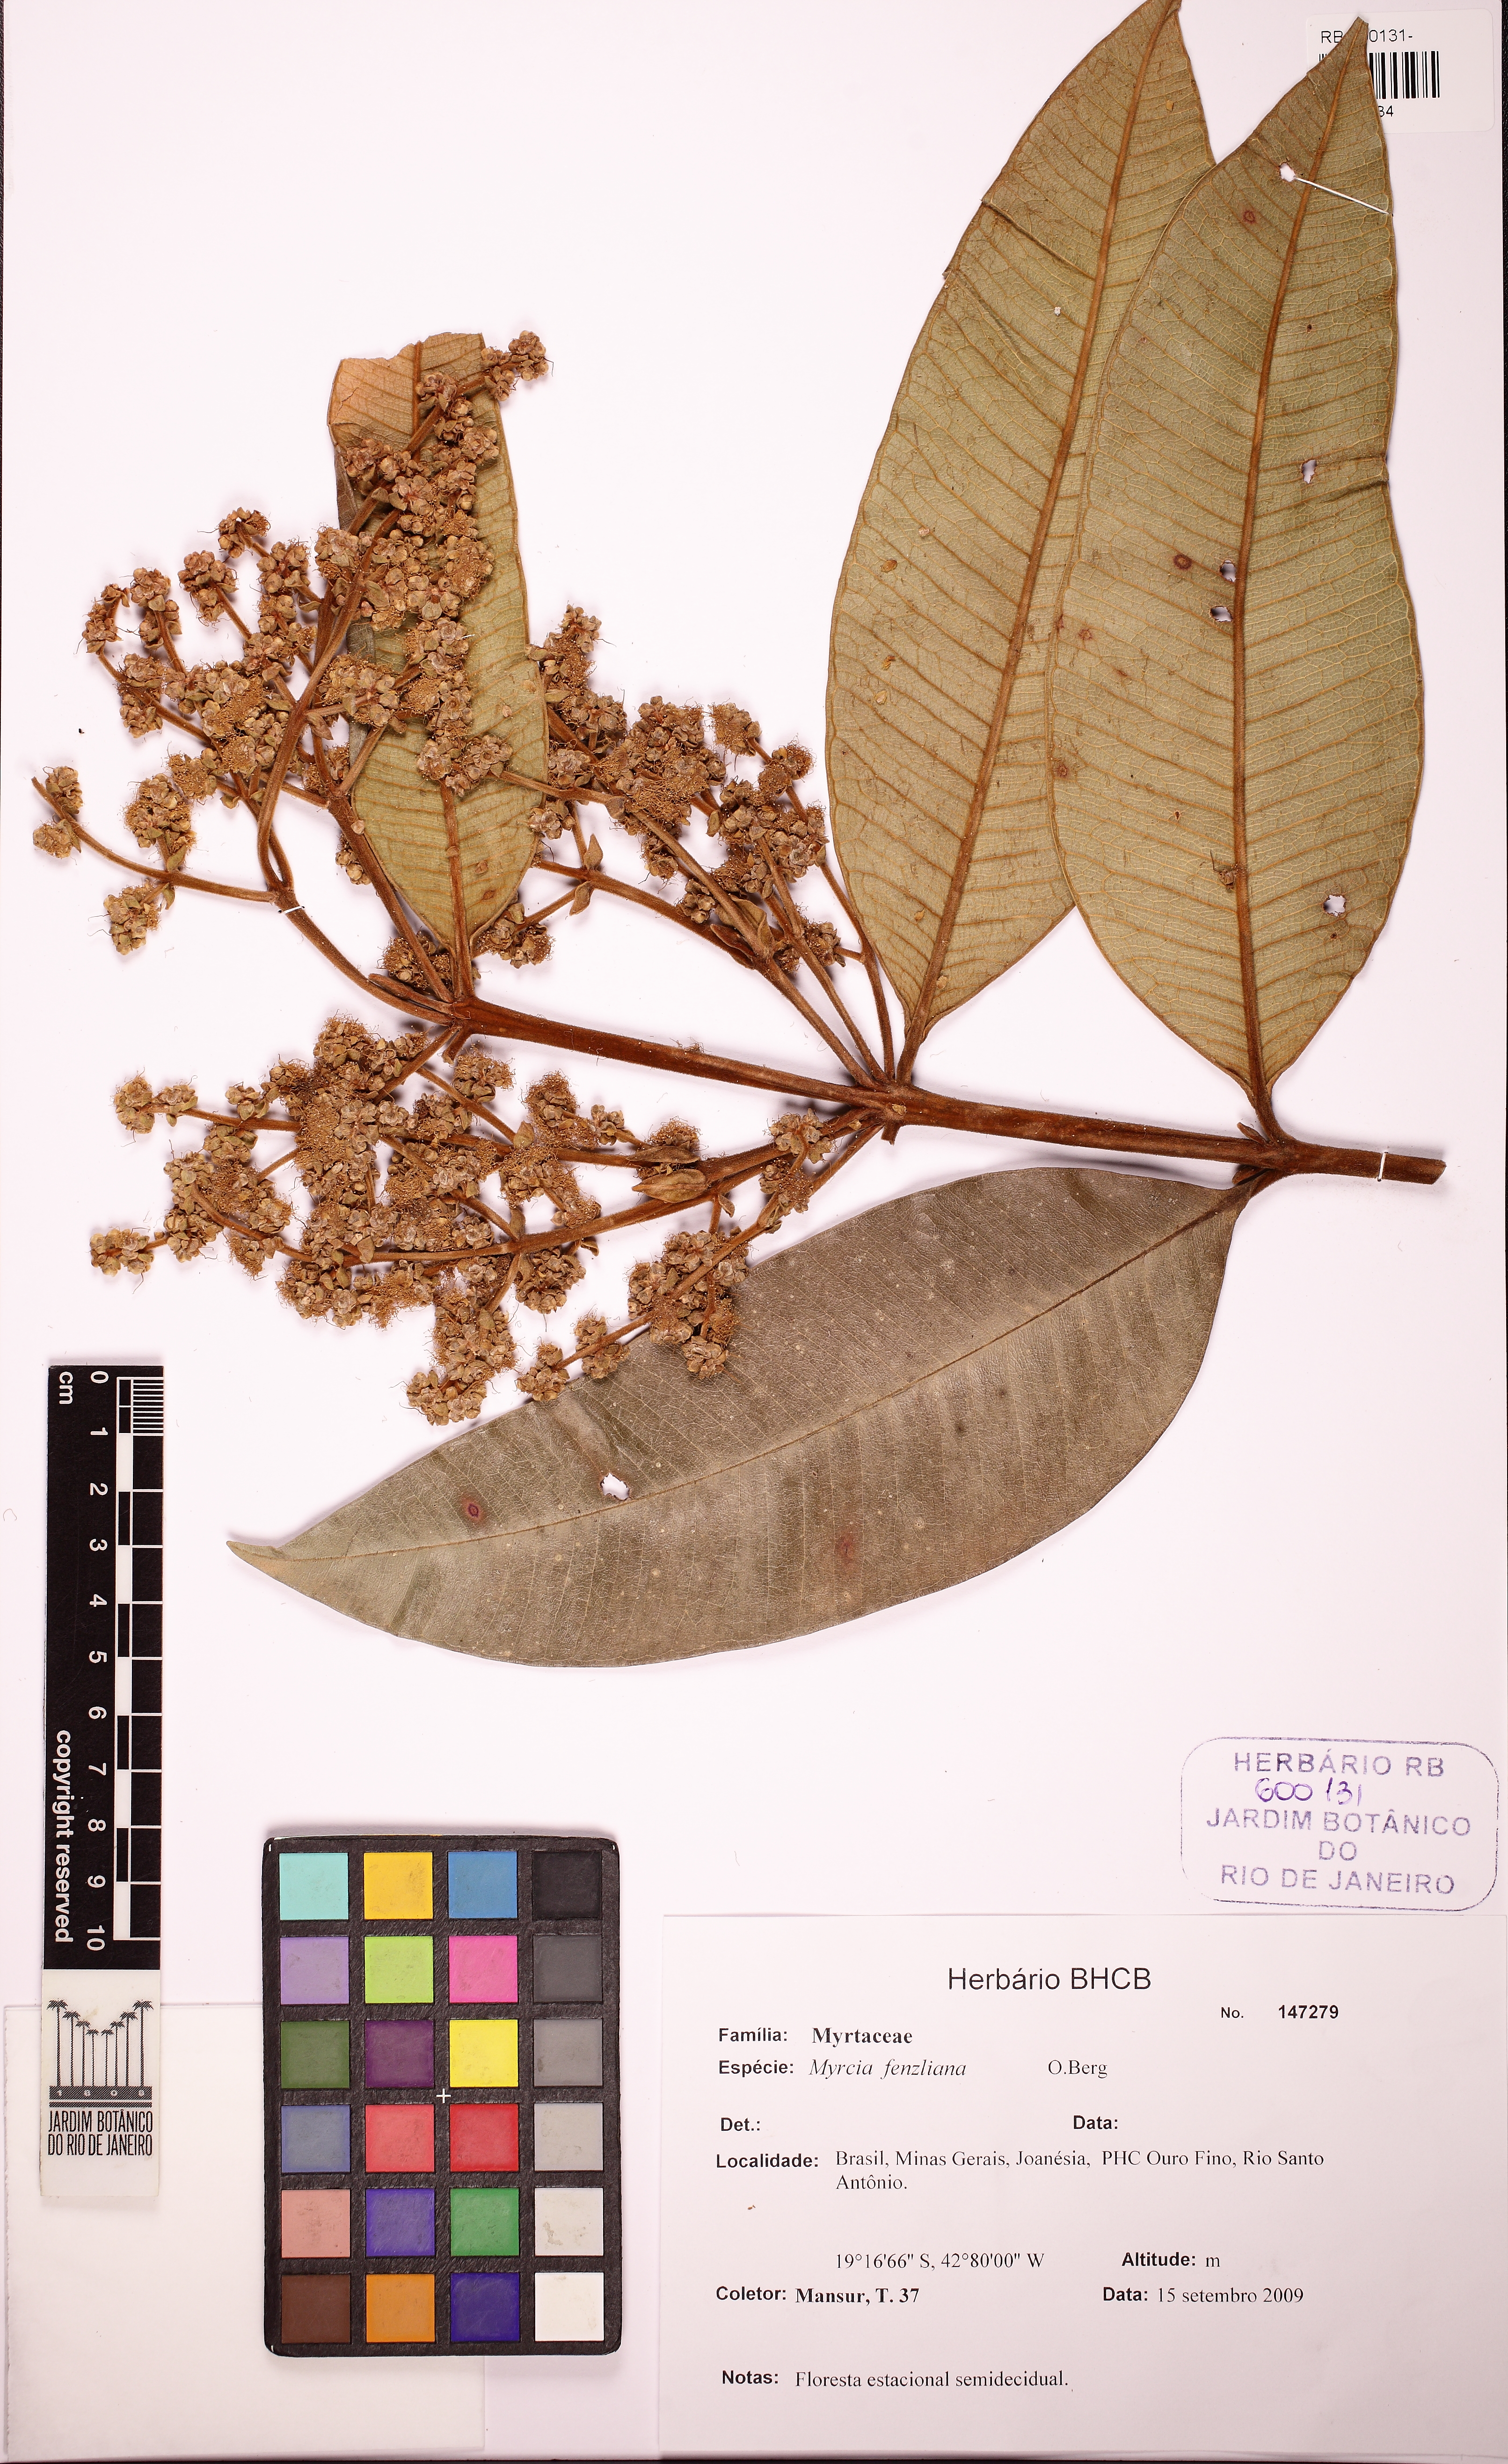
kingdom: Plantae
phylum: Tracheophyta
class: Magnoliopsida
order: Myrtales
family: Myrtaceae
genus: Myrcia
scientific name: Myrcia fenzliana
